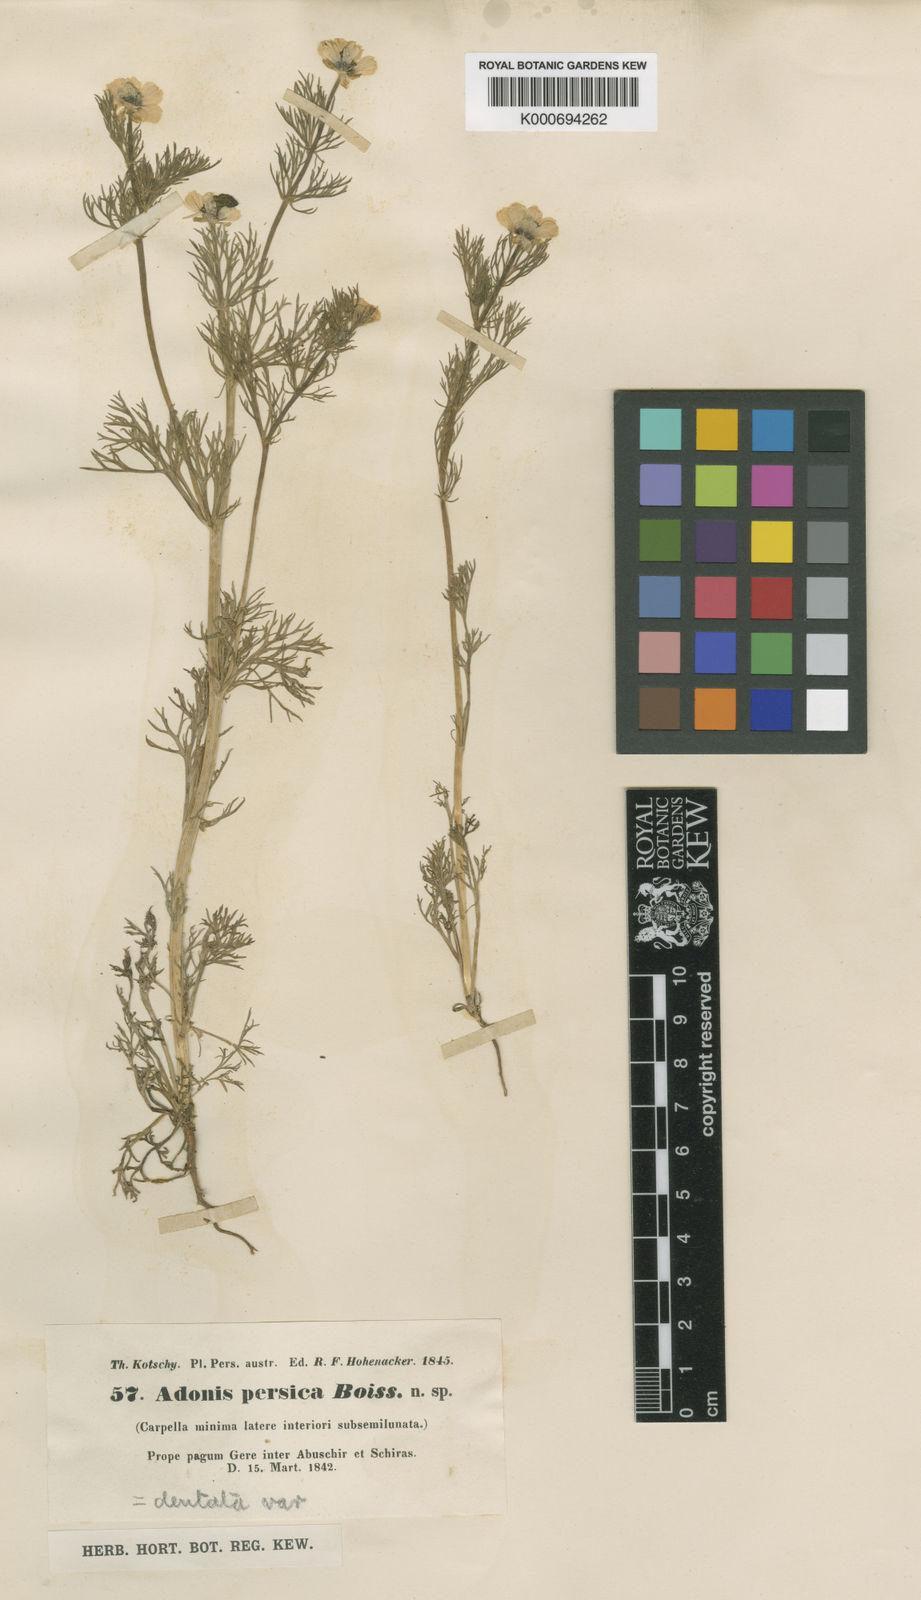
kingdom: Plantae
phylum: Tracheophyta
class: Magnoliopsida
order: Ranunculales
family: Ranunculaceae
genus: Adonis
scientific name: Adonis
